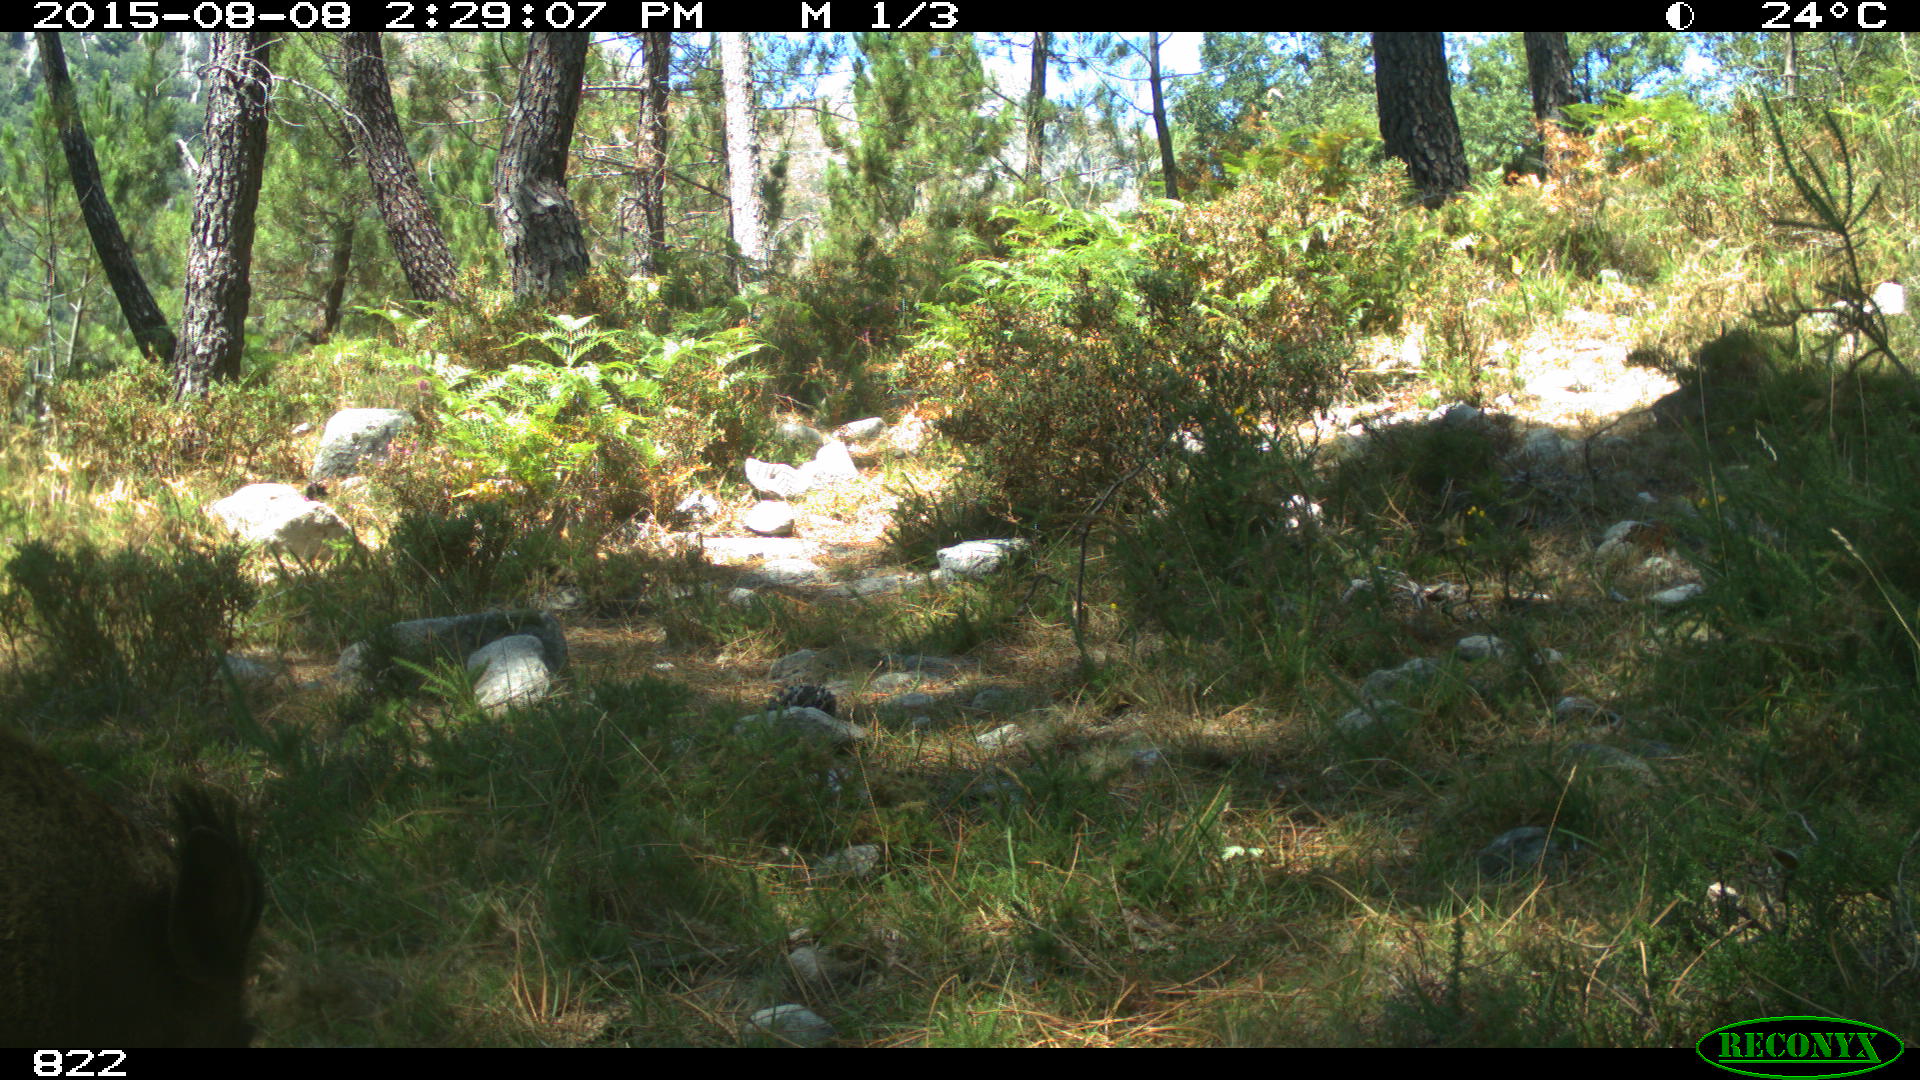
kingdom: Animalia
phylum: Chordata
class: Mammalia
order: Artiodactyla
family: Suidae
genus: Sus
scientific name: Sus scrofa
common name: Wild boar
